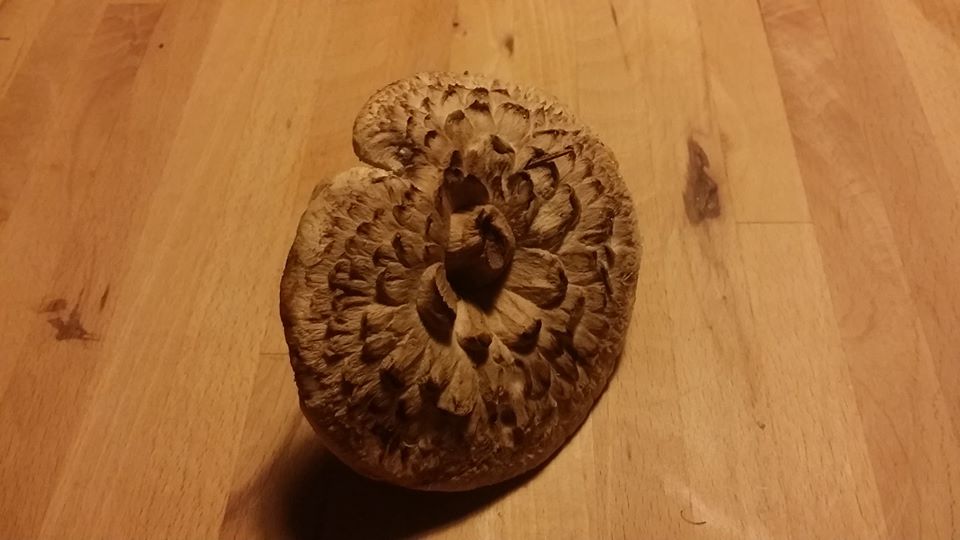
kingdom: Fungi
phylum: Basidiomycota
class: Agaricomycetes
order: Thelephorales
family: Bankeraceae
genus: Sarcodon
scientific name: Sarcodon imbricatus
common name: skællet kødpigsvamp
